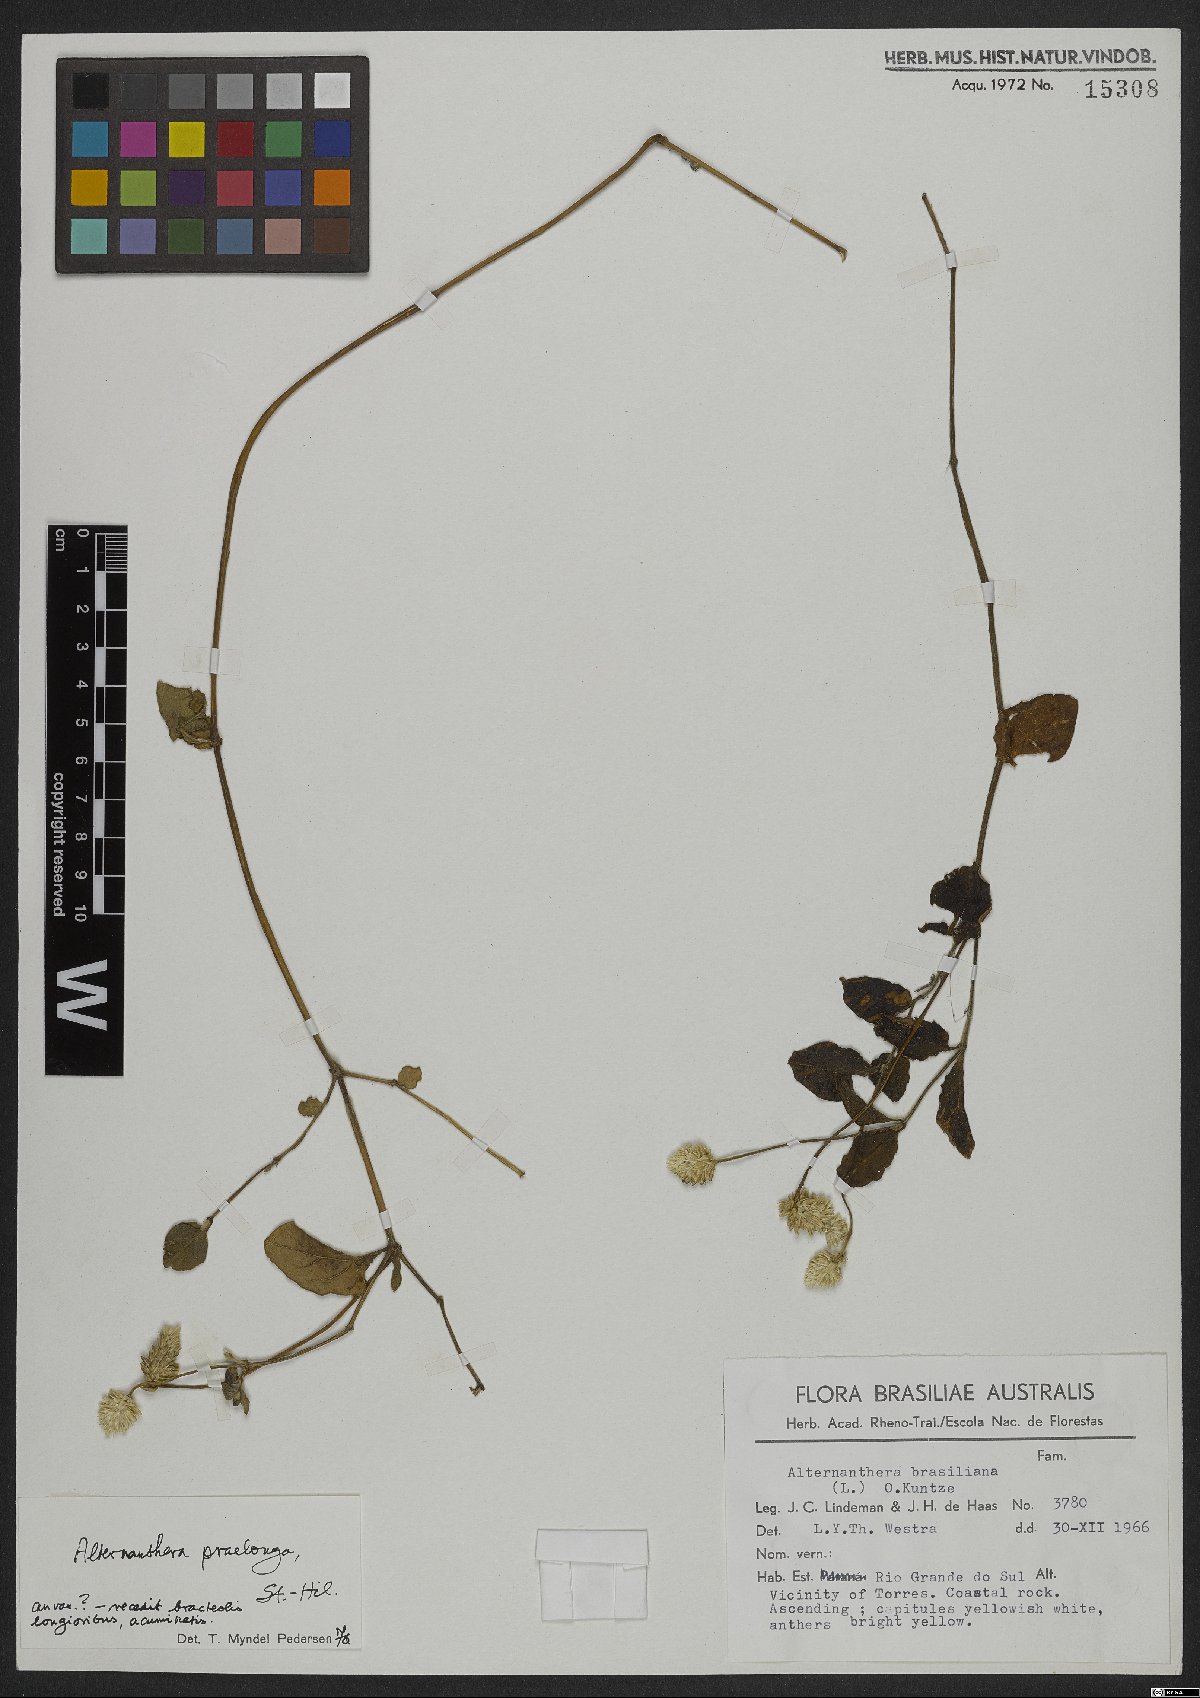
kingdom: Plantae
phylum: Tracheophyta
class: Magnoliopsida
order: Caryophyllales
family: Amaranthaceae
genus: Alternanthera
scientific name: Alternanthera brasiliana
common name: Brazilian joyweed
